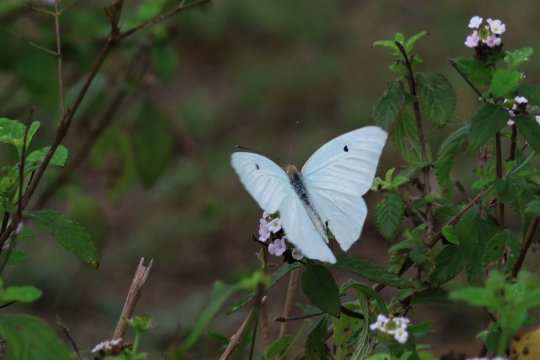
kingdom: Animalia
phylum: Arthropoda
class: Insecta
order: Lepidoptera
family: Pieridae
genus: Ganyra
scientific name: Ganyra josephina
